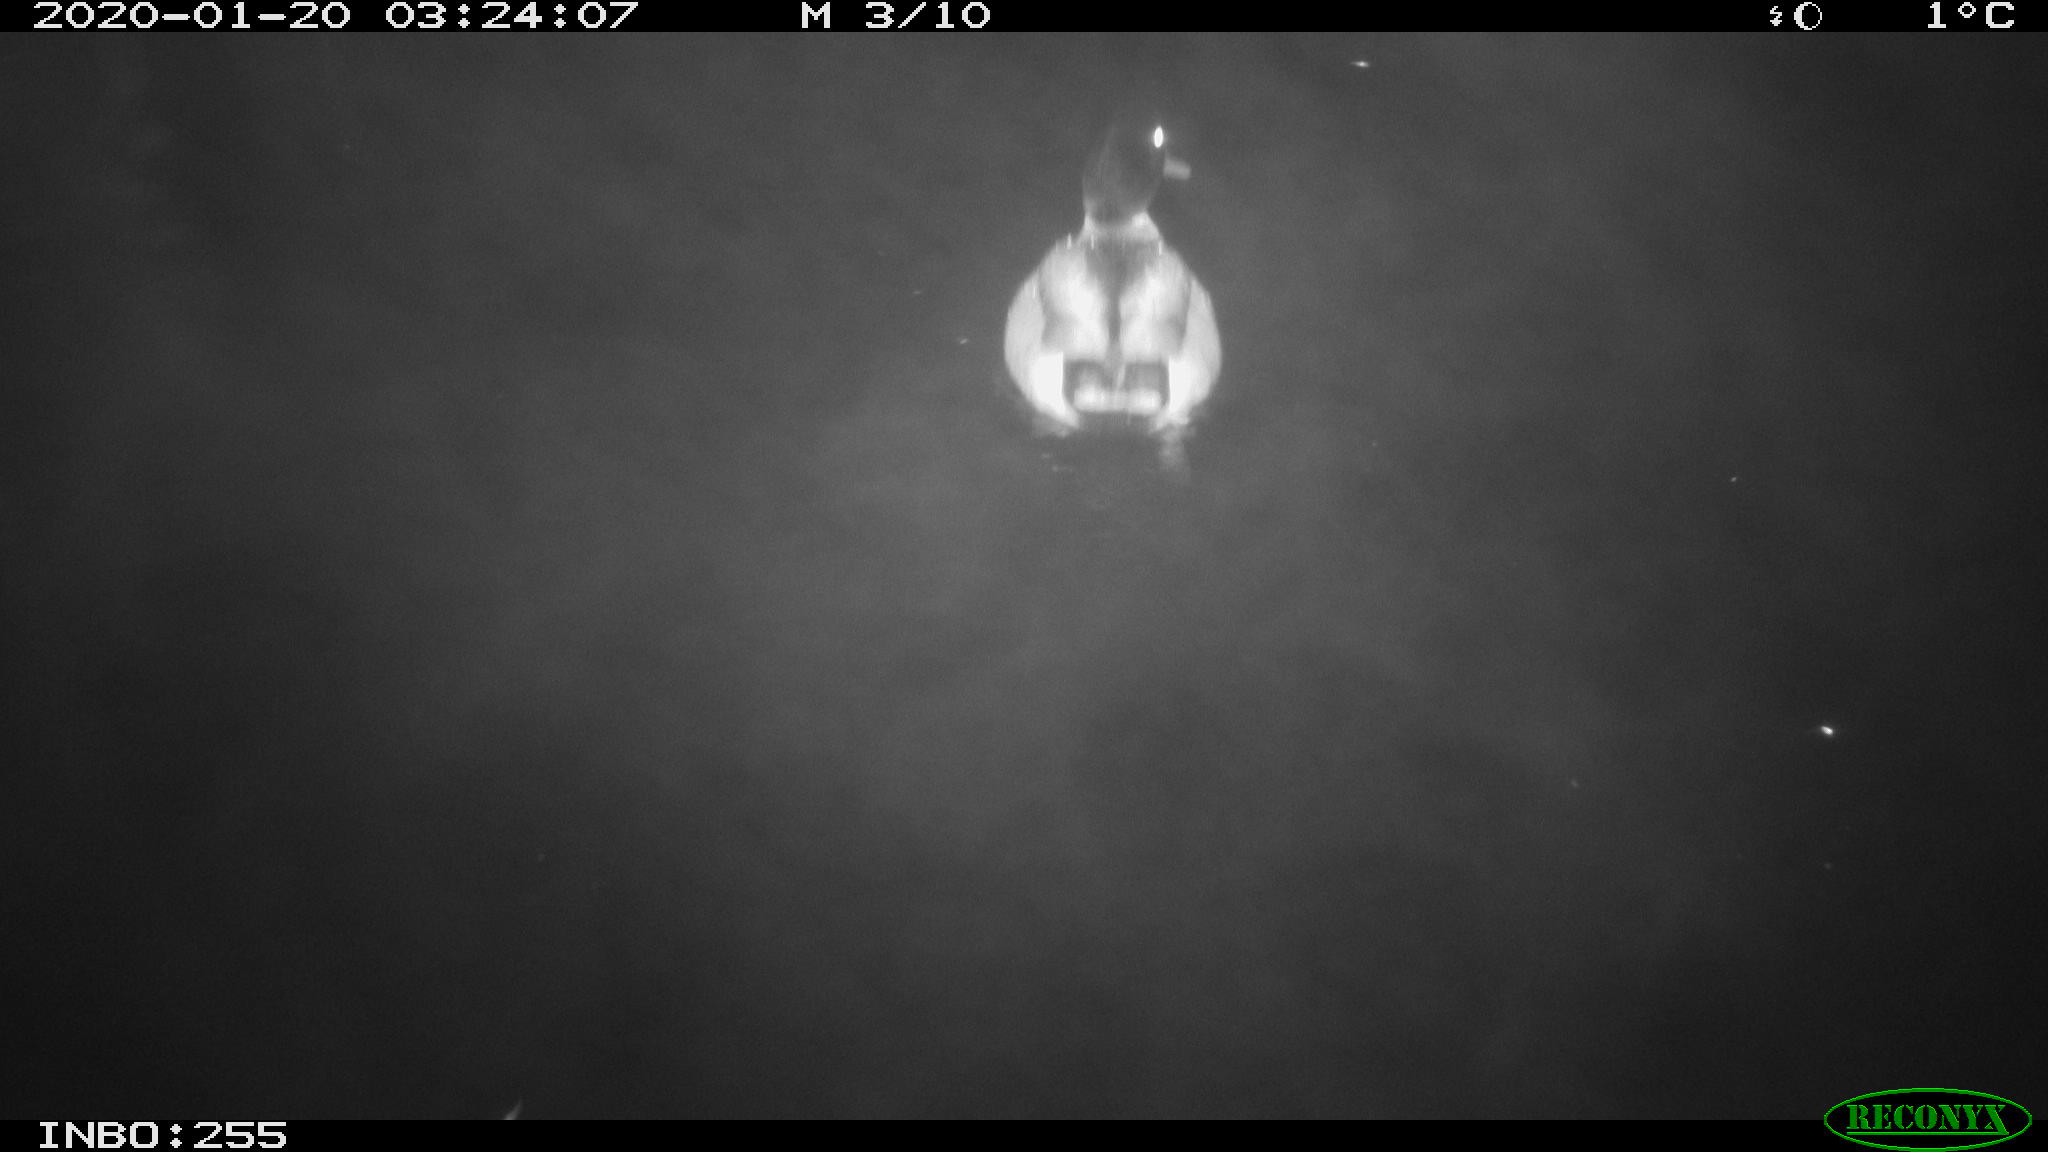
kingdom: Animalia
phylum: Chordata
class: Aves
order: Anseriformes
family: Anatidae
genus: Anas
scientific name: Anas platyrhynchos
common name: Mallard
